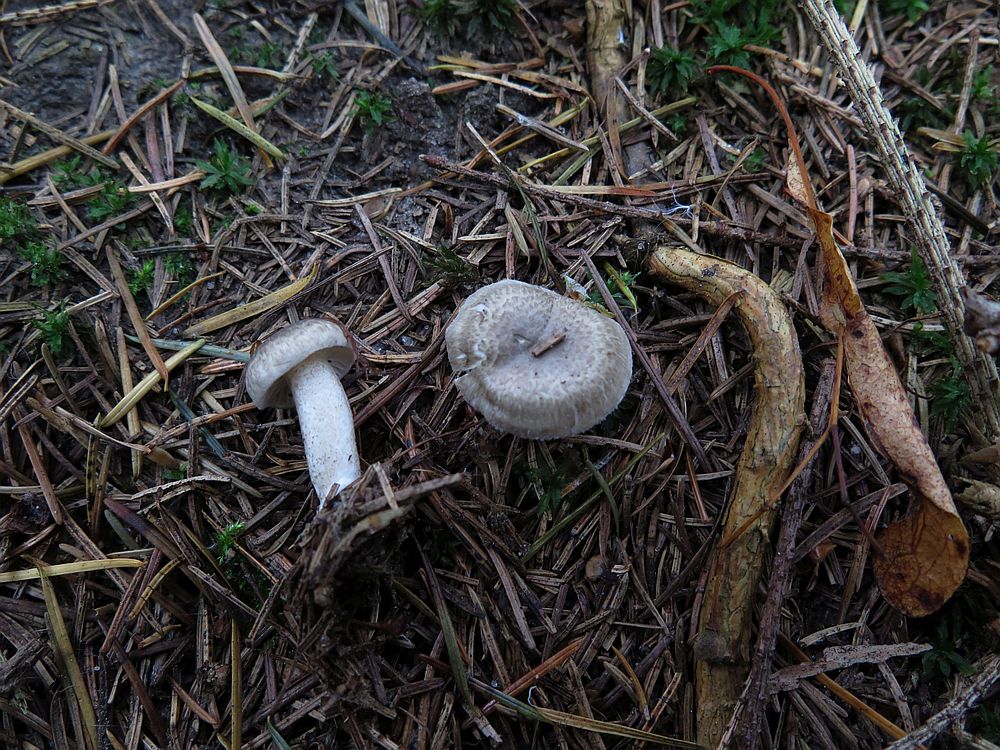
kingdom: Fungi
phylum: Basidiomycota
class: Agaricomycetes
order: Agaricales
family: Hygrophoraceae
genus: Hygrophorus
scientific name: Hygrophorus pustulatus
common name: mørkprikket sneglehat
